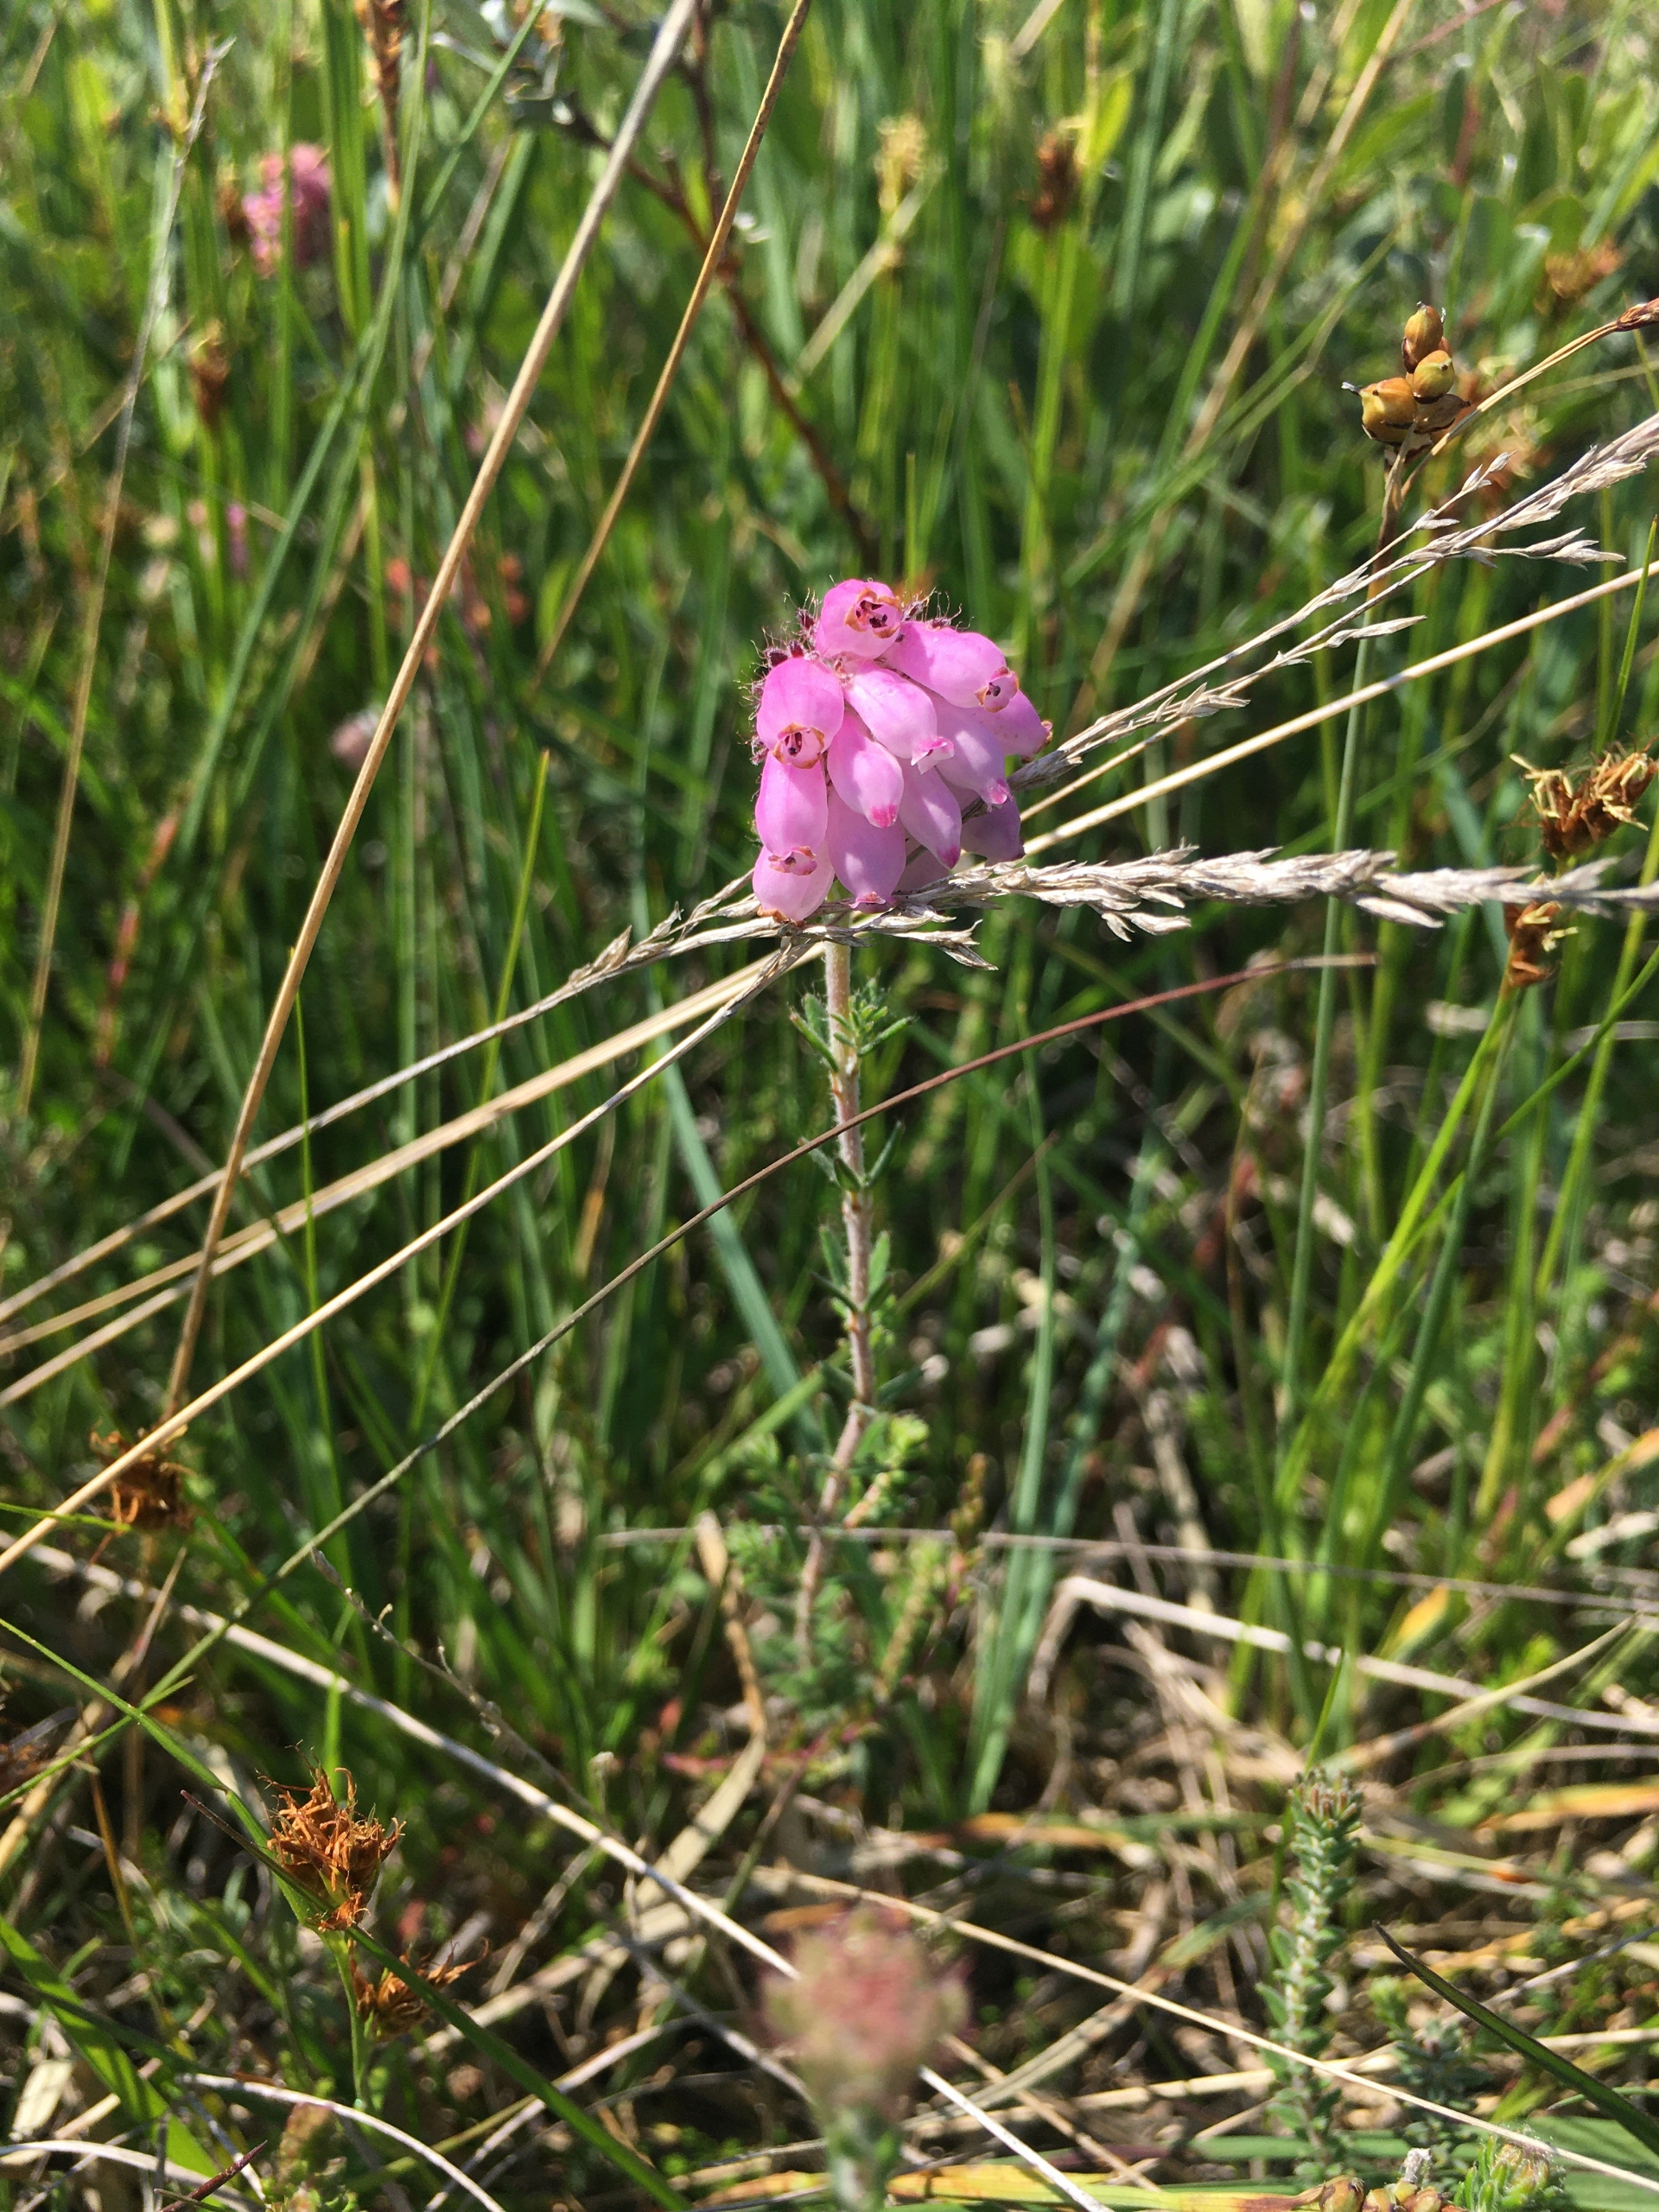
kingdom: Plantae
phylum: Tracheophyta
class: Magnoliopsida
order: Ericales
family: Ericaceae
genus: Erica
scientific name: Erica tetralix
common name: Klokkelyng
